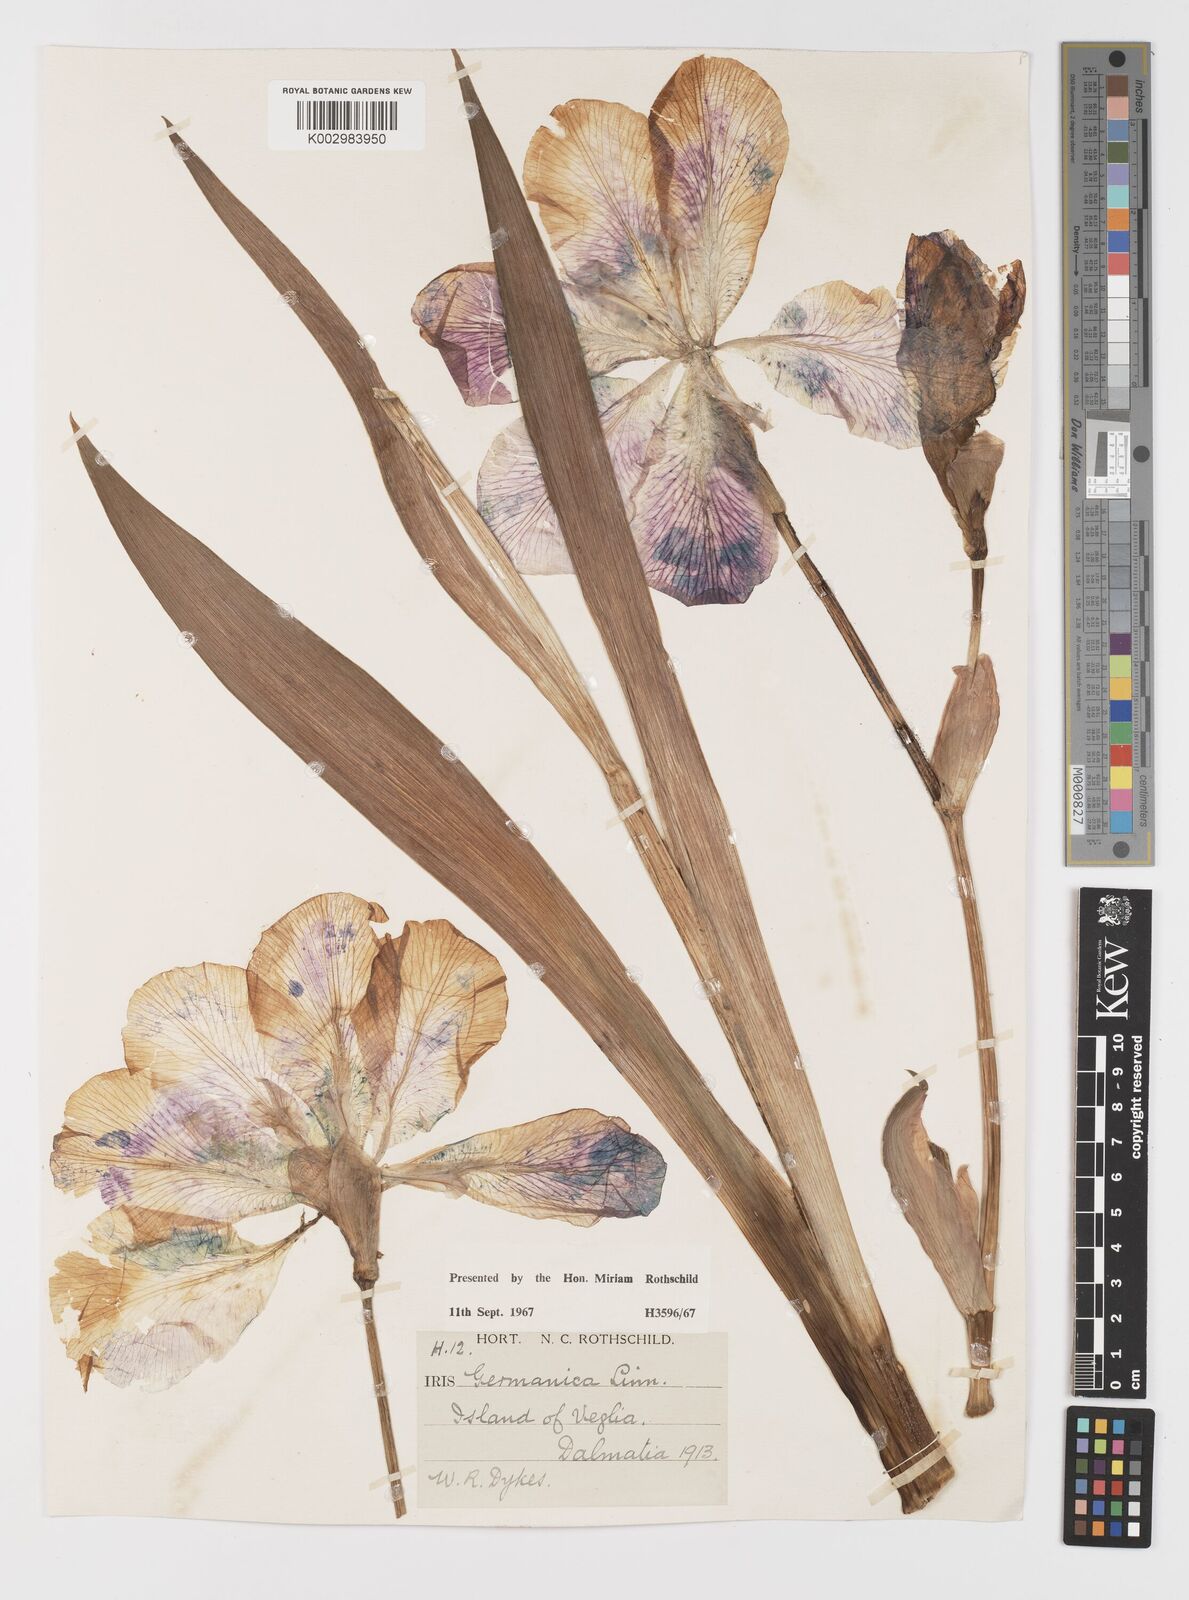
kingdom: Plantae
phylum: Tracheophyta
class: Liliopsida
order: Asparagales
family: Iridaceae
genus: Iris
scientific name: Iris germanica
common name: German iris
